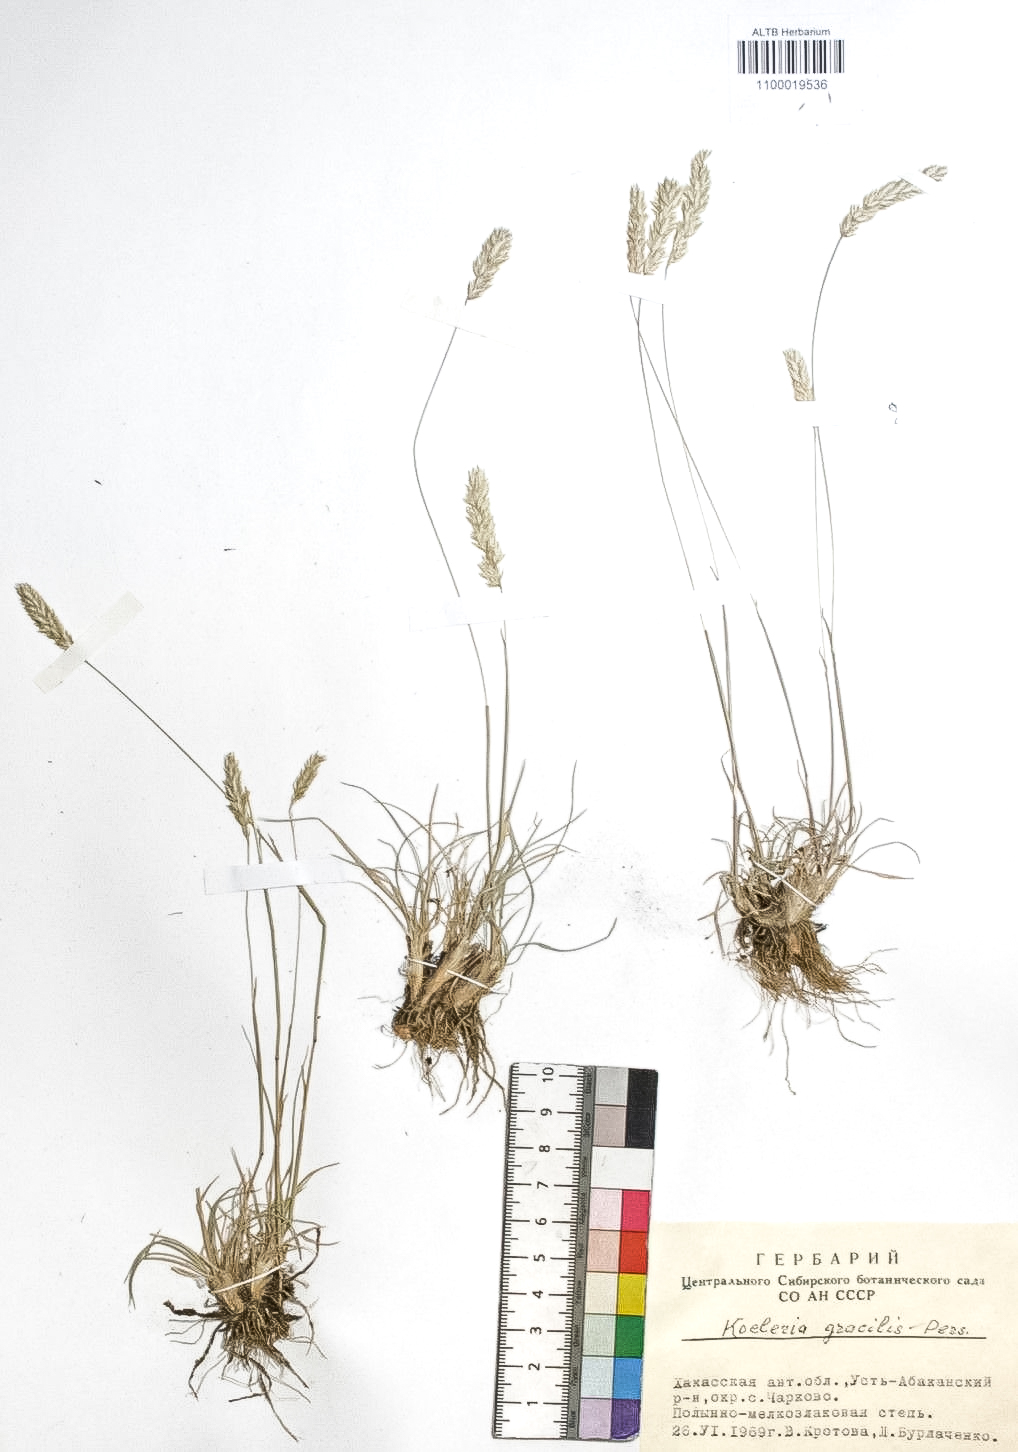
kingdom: Plantae
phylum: Tracheophyta
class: Liliopsida
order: Poales
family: Poaceae
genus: Koeleria
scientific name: Koeleria macrantha
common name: Crested hair-grass
